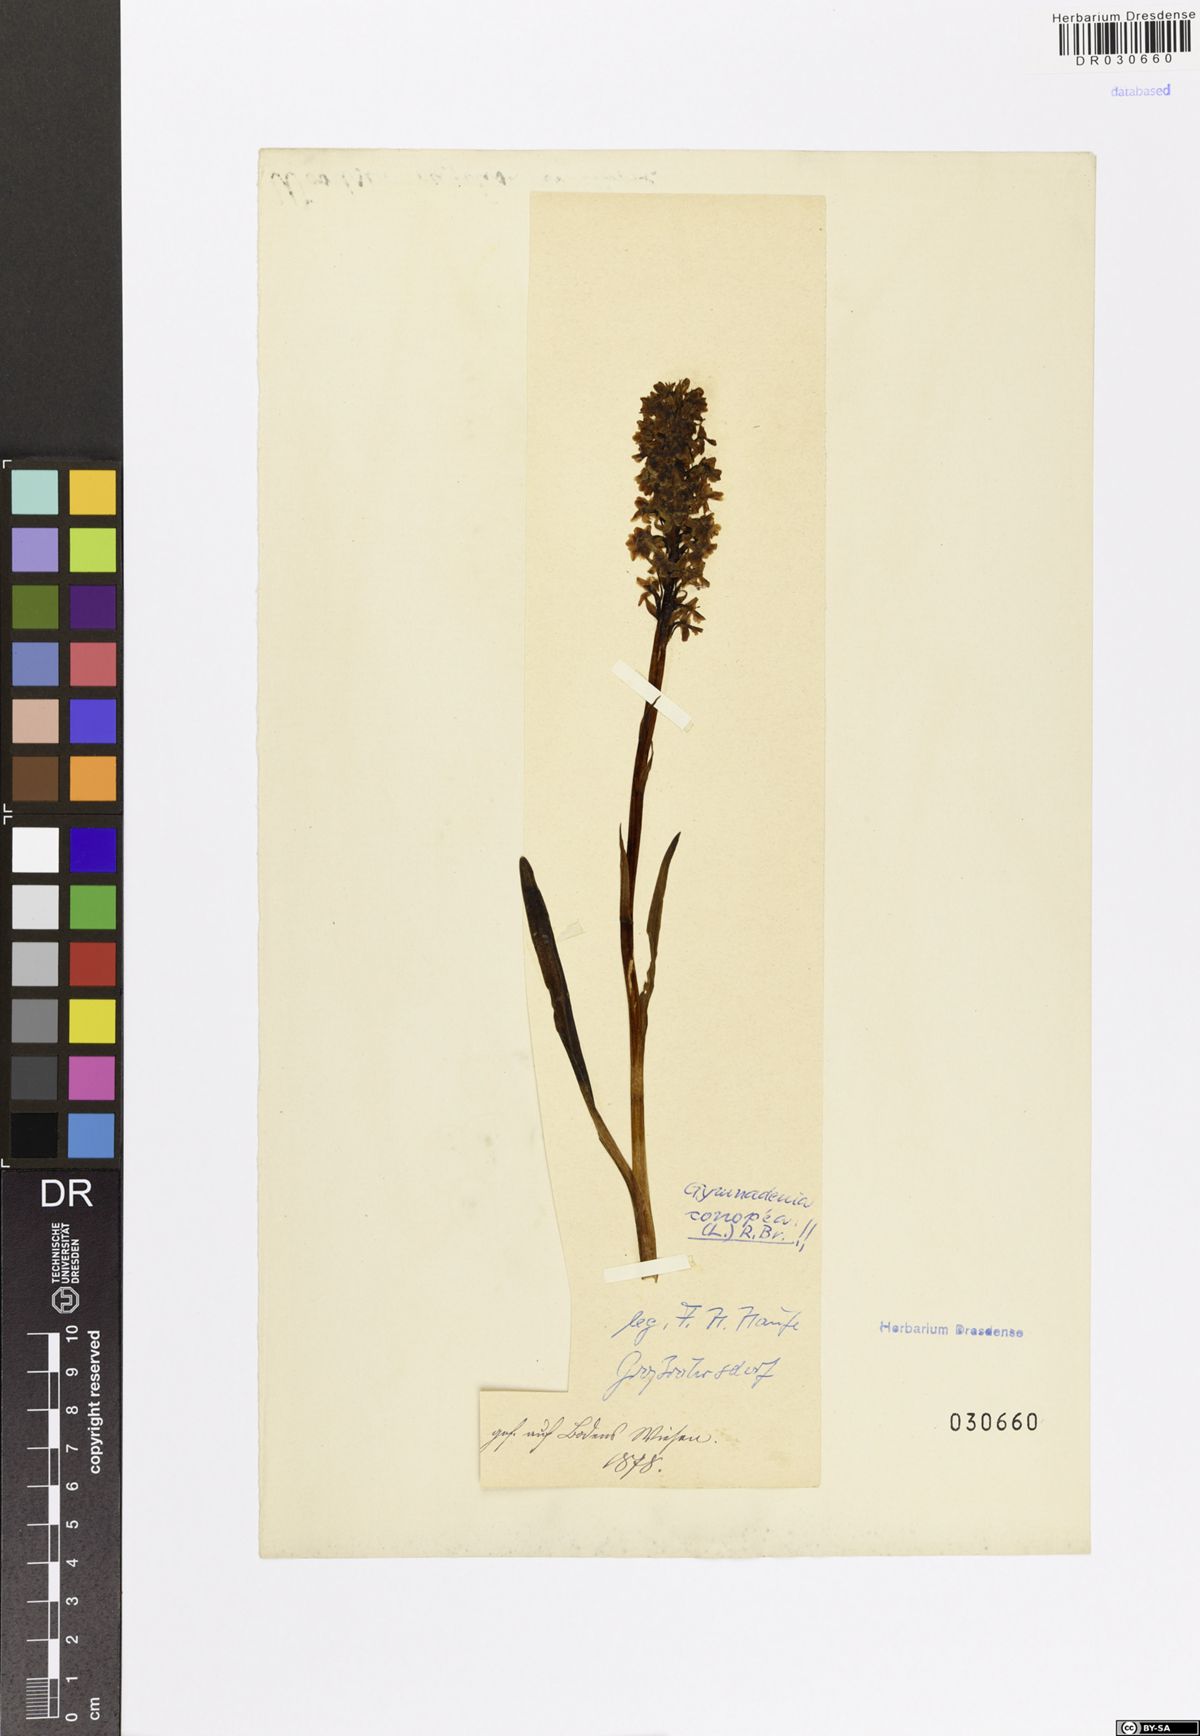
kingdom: Plantae
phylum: Tracheophyta
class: Liliopsida
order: Asparagales
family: Orchidaceae
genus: Gymnadenia
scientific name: Gymnadenia conopsea
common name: Fragrant orchid
